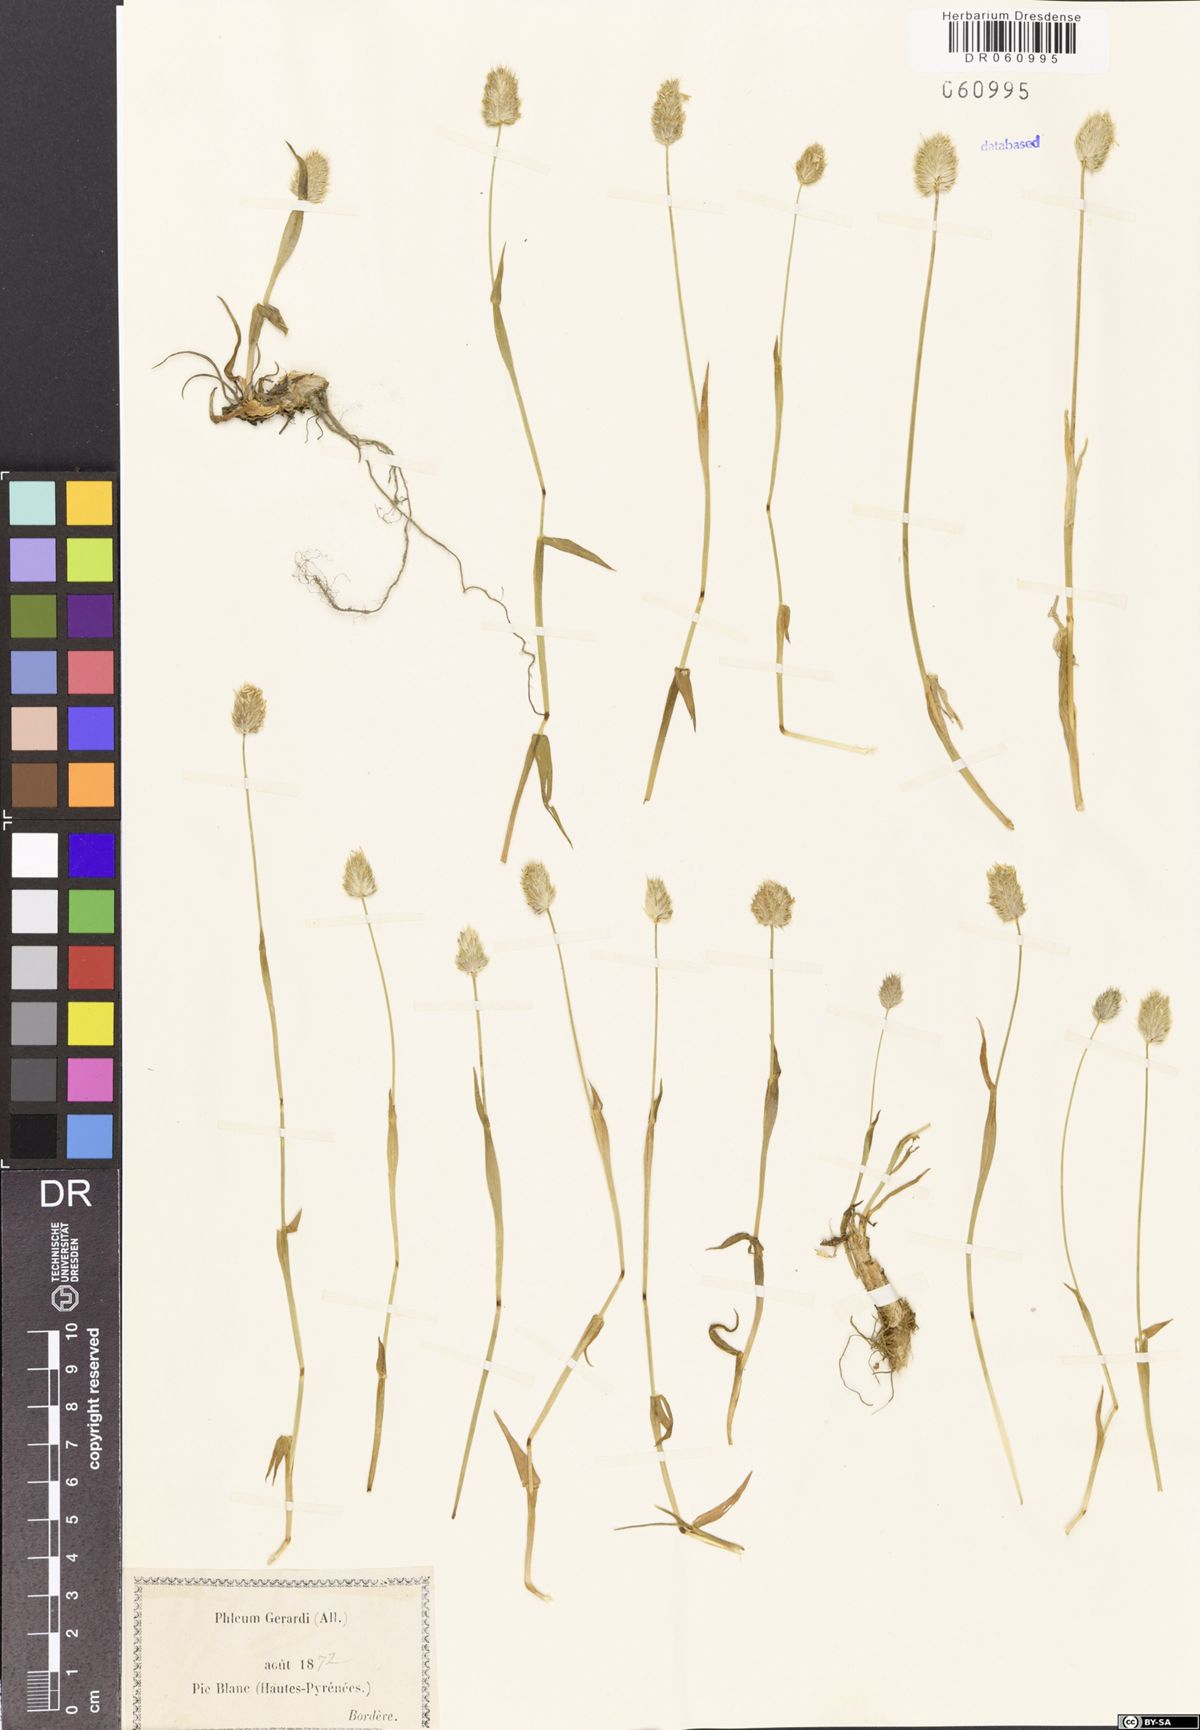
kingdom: Plantae
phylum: Tracheophyta
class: Liliopsida
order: Poales
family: Poaceae
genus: Alopecurus
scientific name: Alopecurus gerardii
